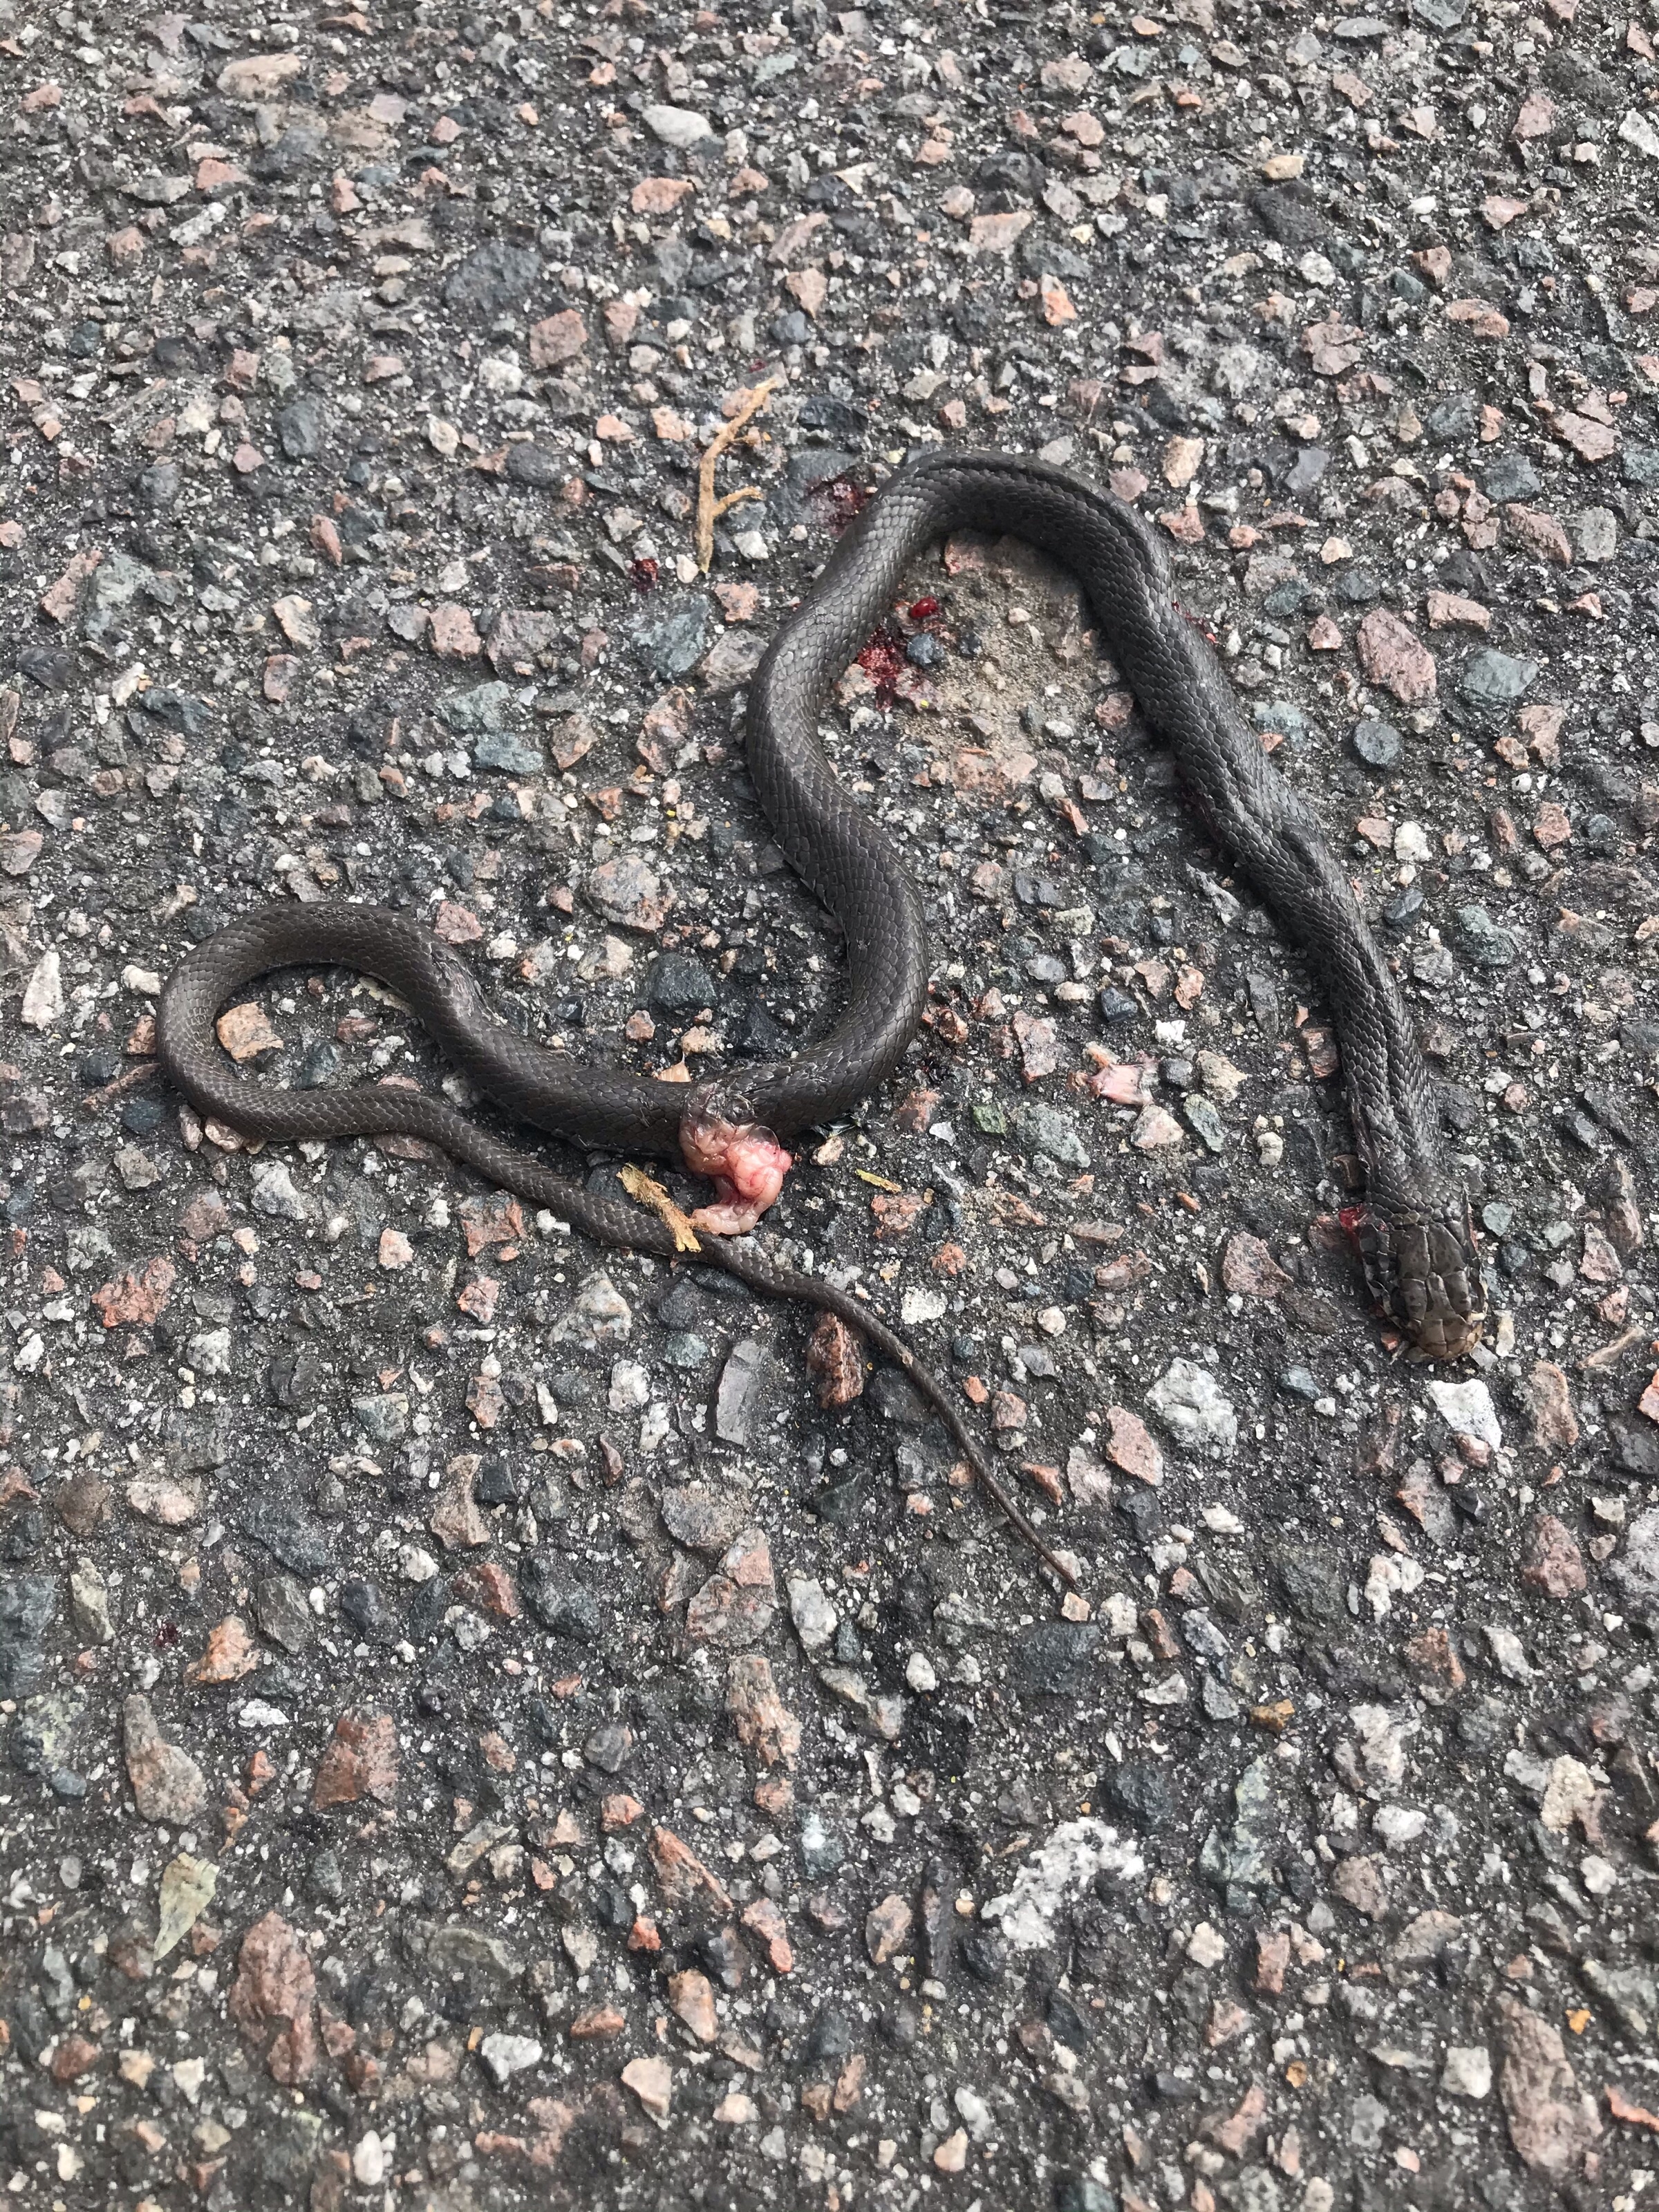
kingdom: Animalia
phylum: Chordata
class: Squamata
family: Colubridae
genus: Pantherophis
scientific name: Pantherophis alleghaniensis
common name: eastern rat snake
